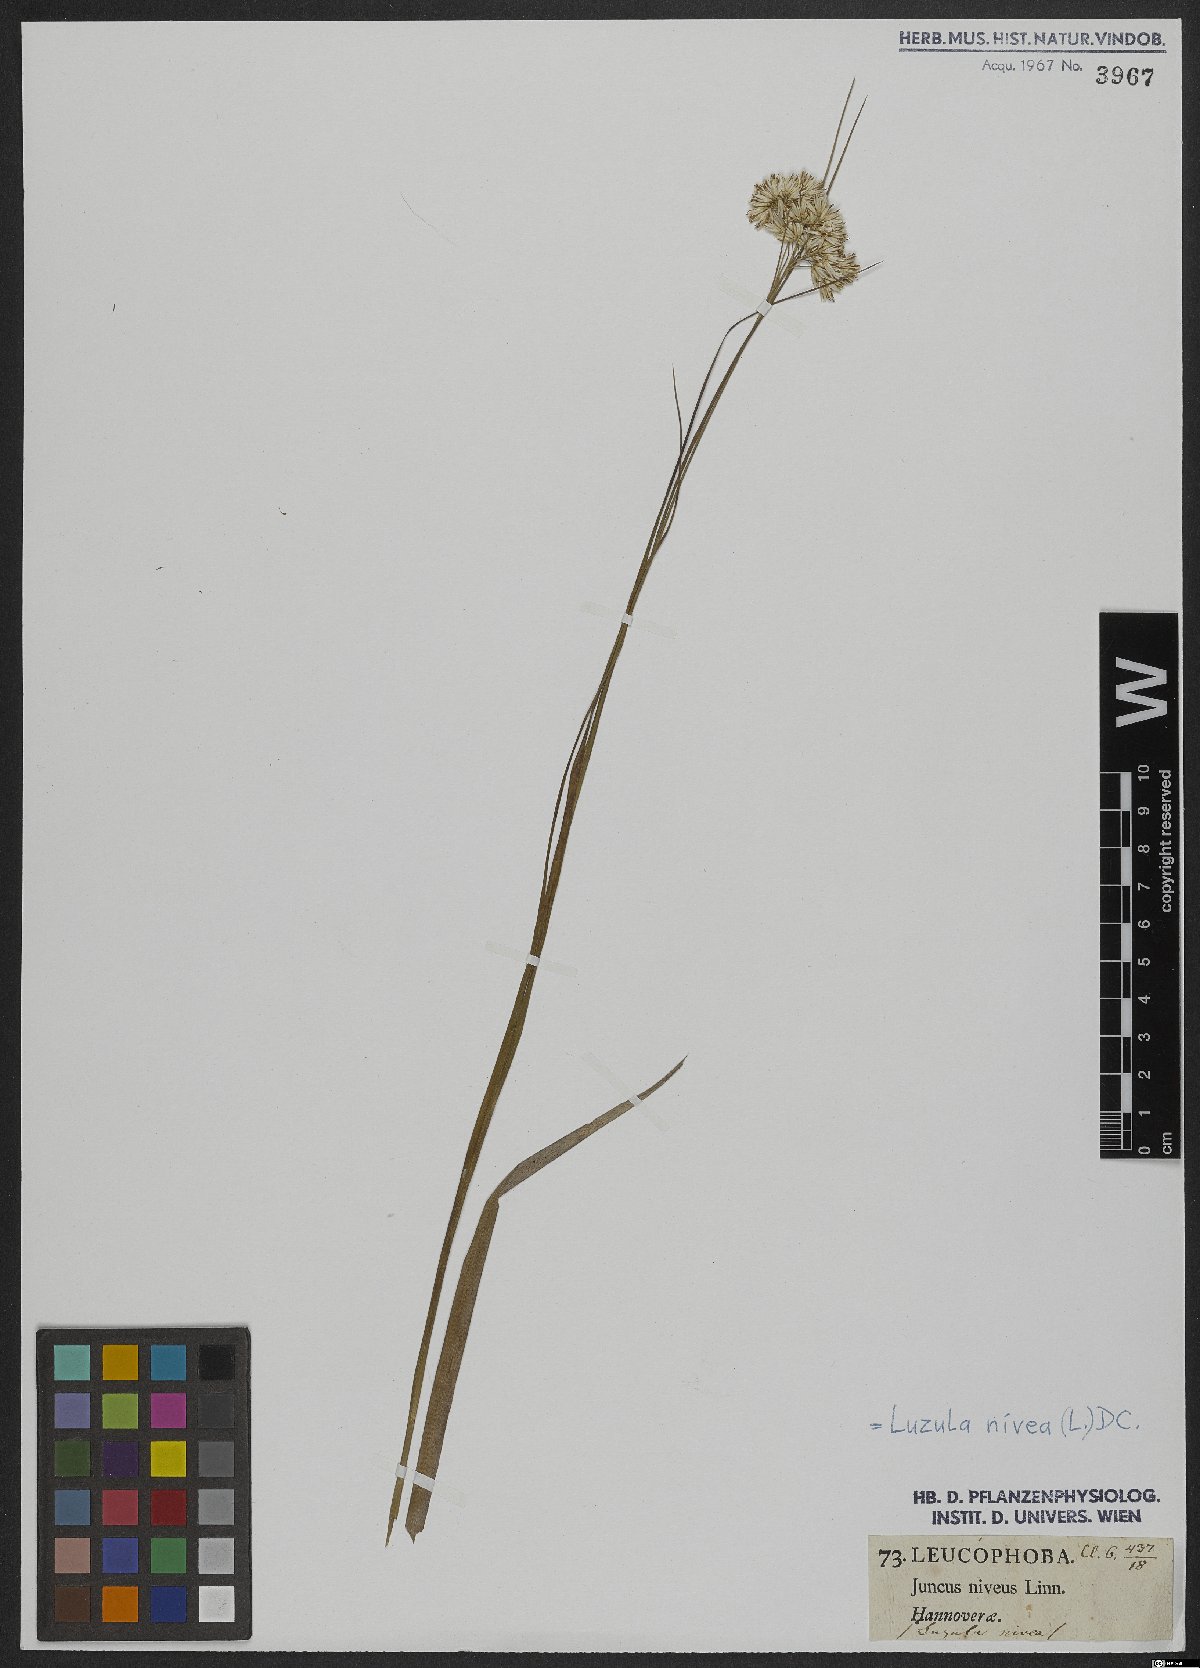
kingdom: Plantae
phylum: Tracheophyta
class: Liliopsida
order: Poales
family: Juncaceae
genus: Luzula
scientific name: Luzula nivea
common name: Snow-white wood-rush
